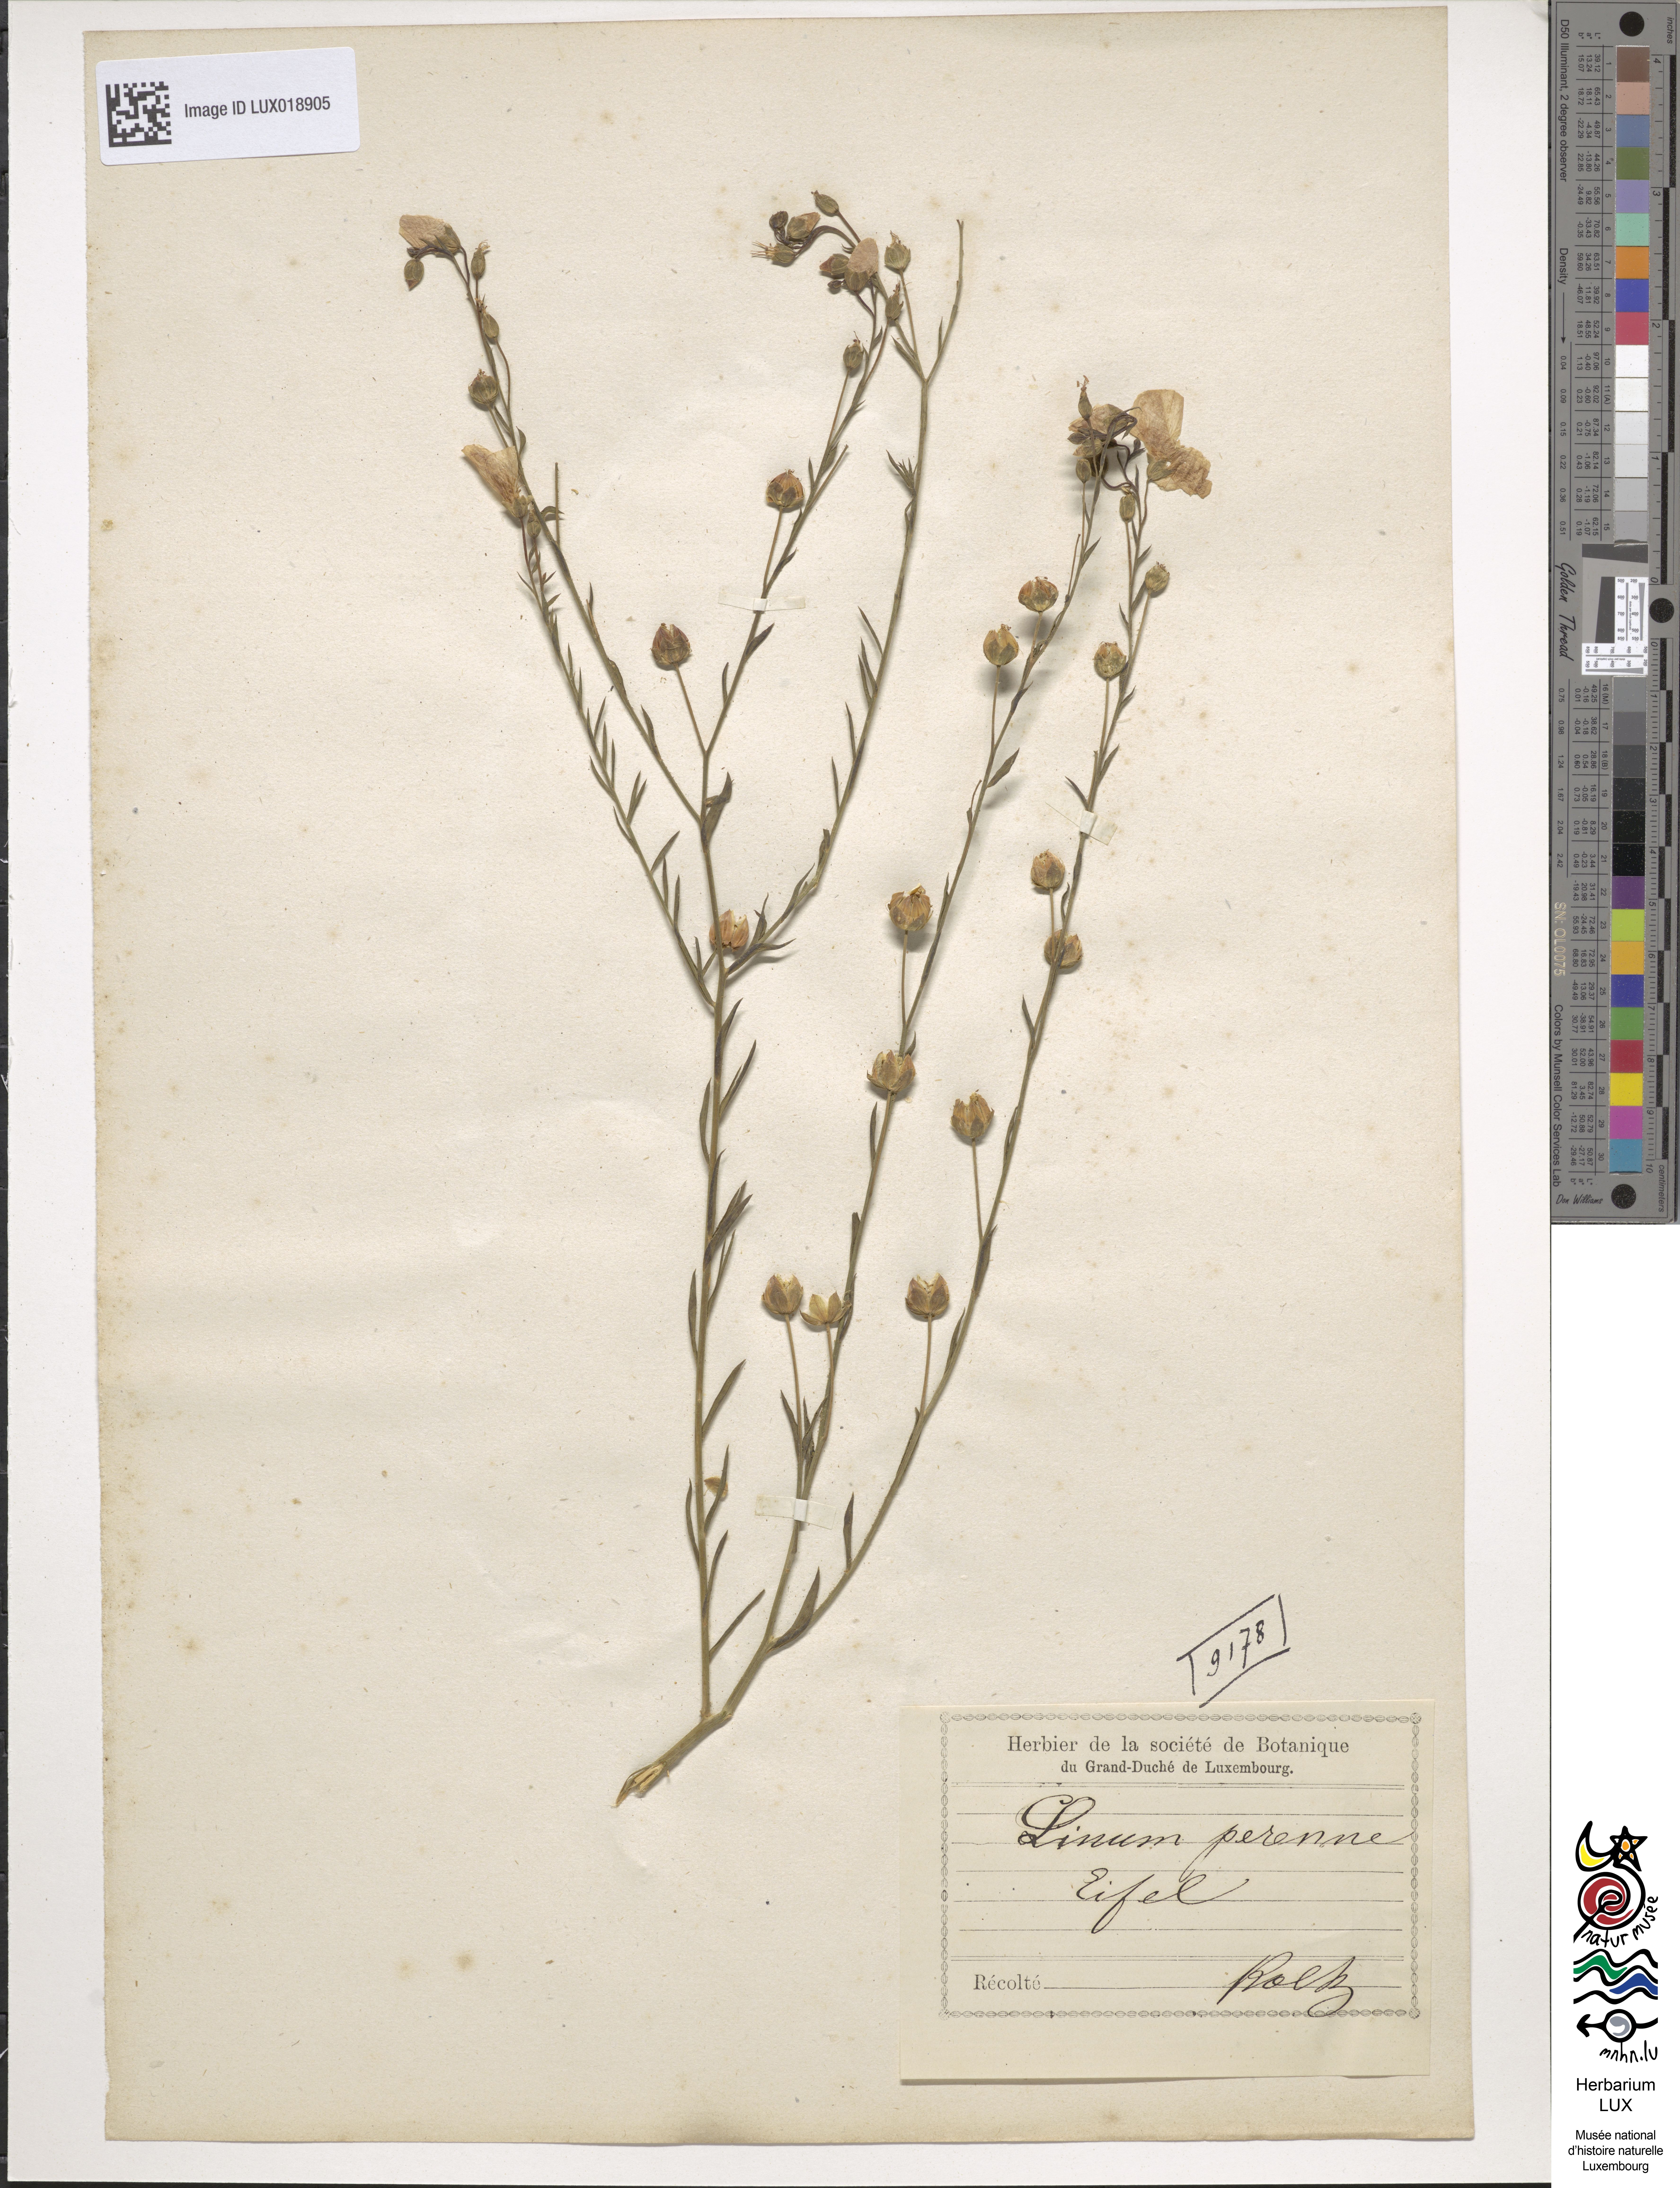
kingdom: Plantae
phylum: Tracheophyta
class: Magnoliopsida
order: Malpighiales
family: Linaceae
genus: Linum
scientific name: Linum perenne
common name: Blue flax
